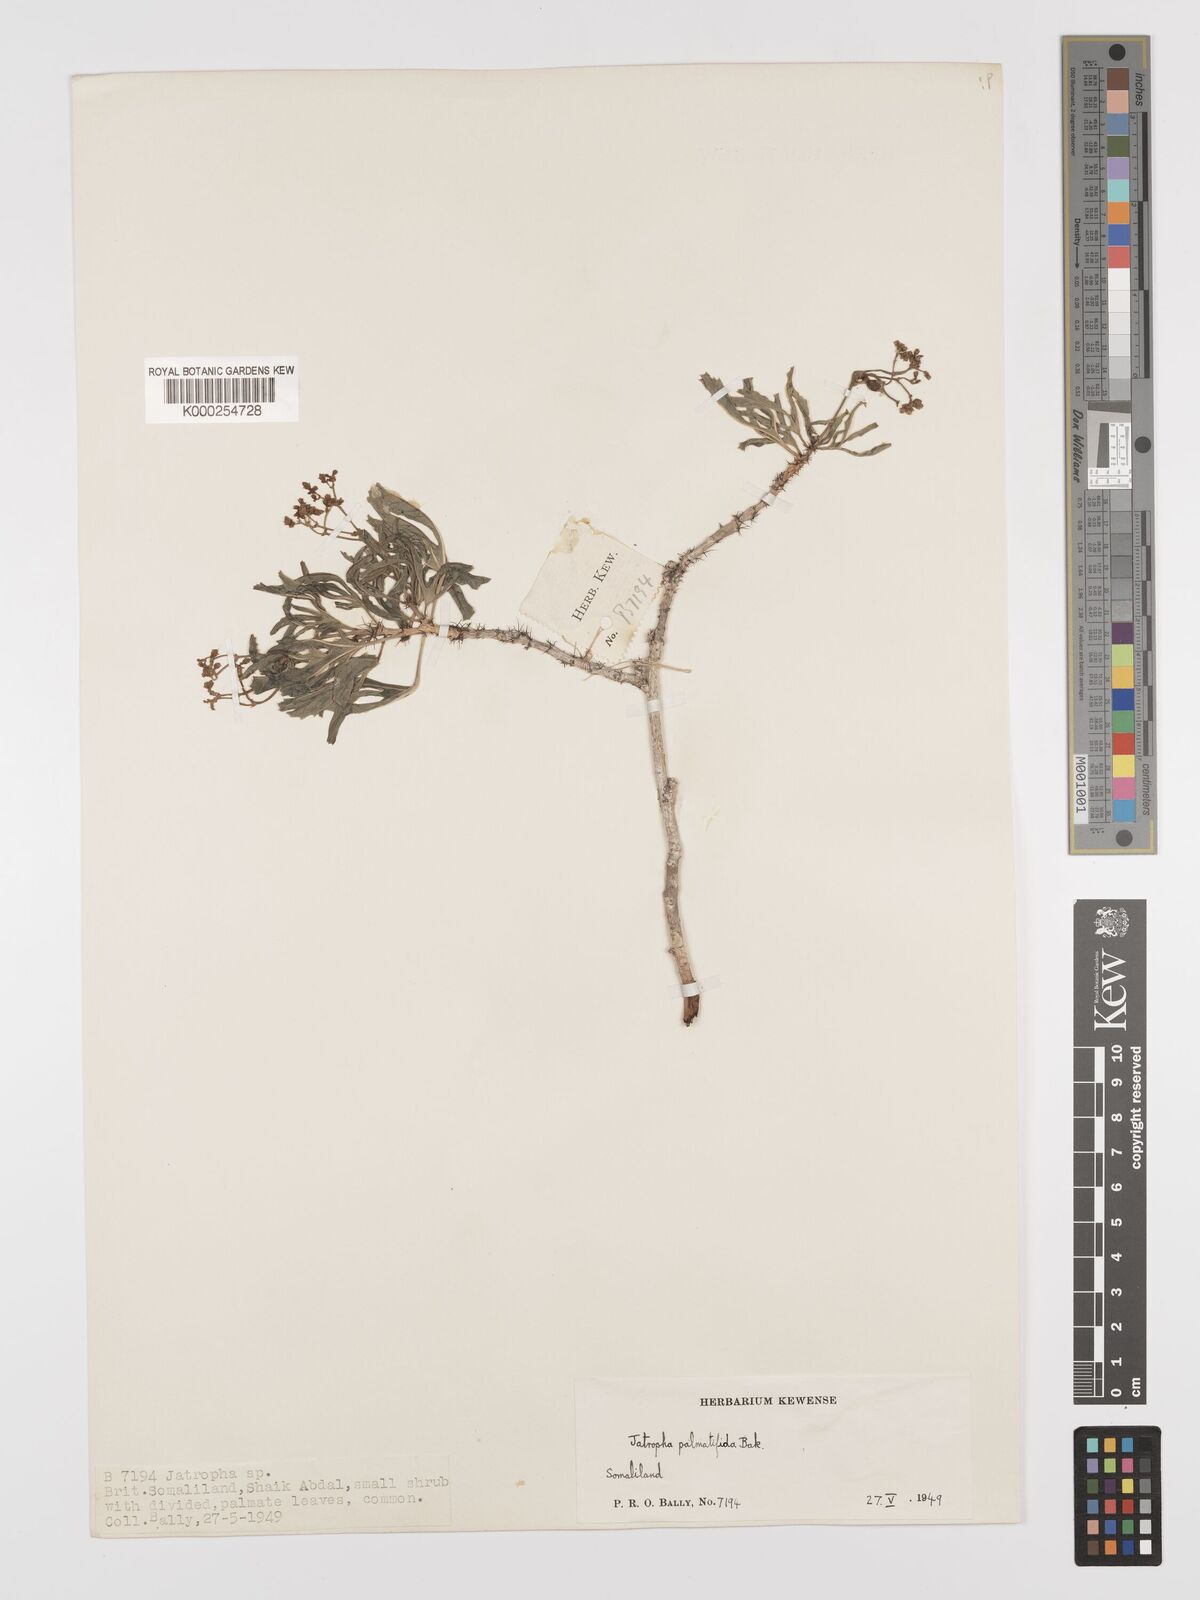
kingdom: Plantae
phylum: Tracheophyta
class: Magnoliopsida
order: Malpighiales
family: Euphorbiaceae
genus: Jatropha
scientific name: Jatropha palmatifida
